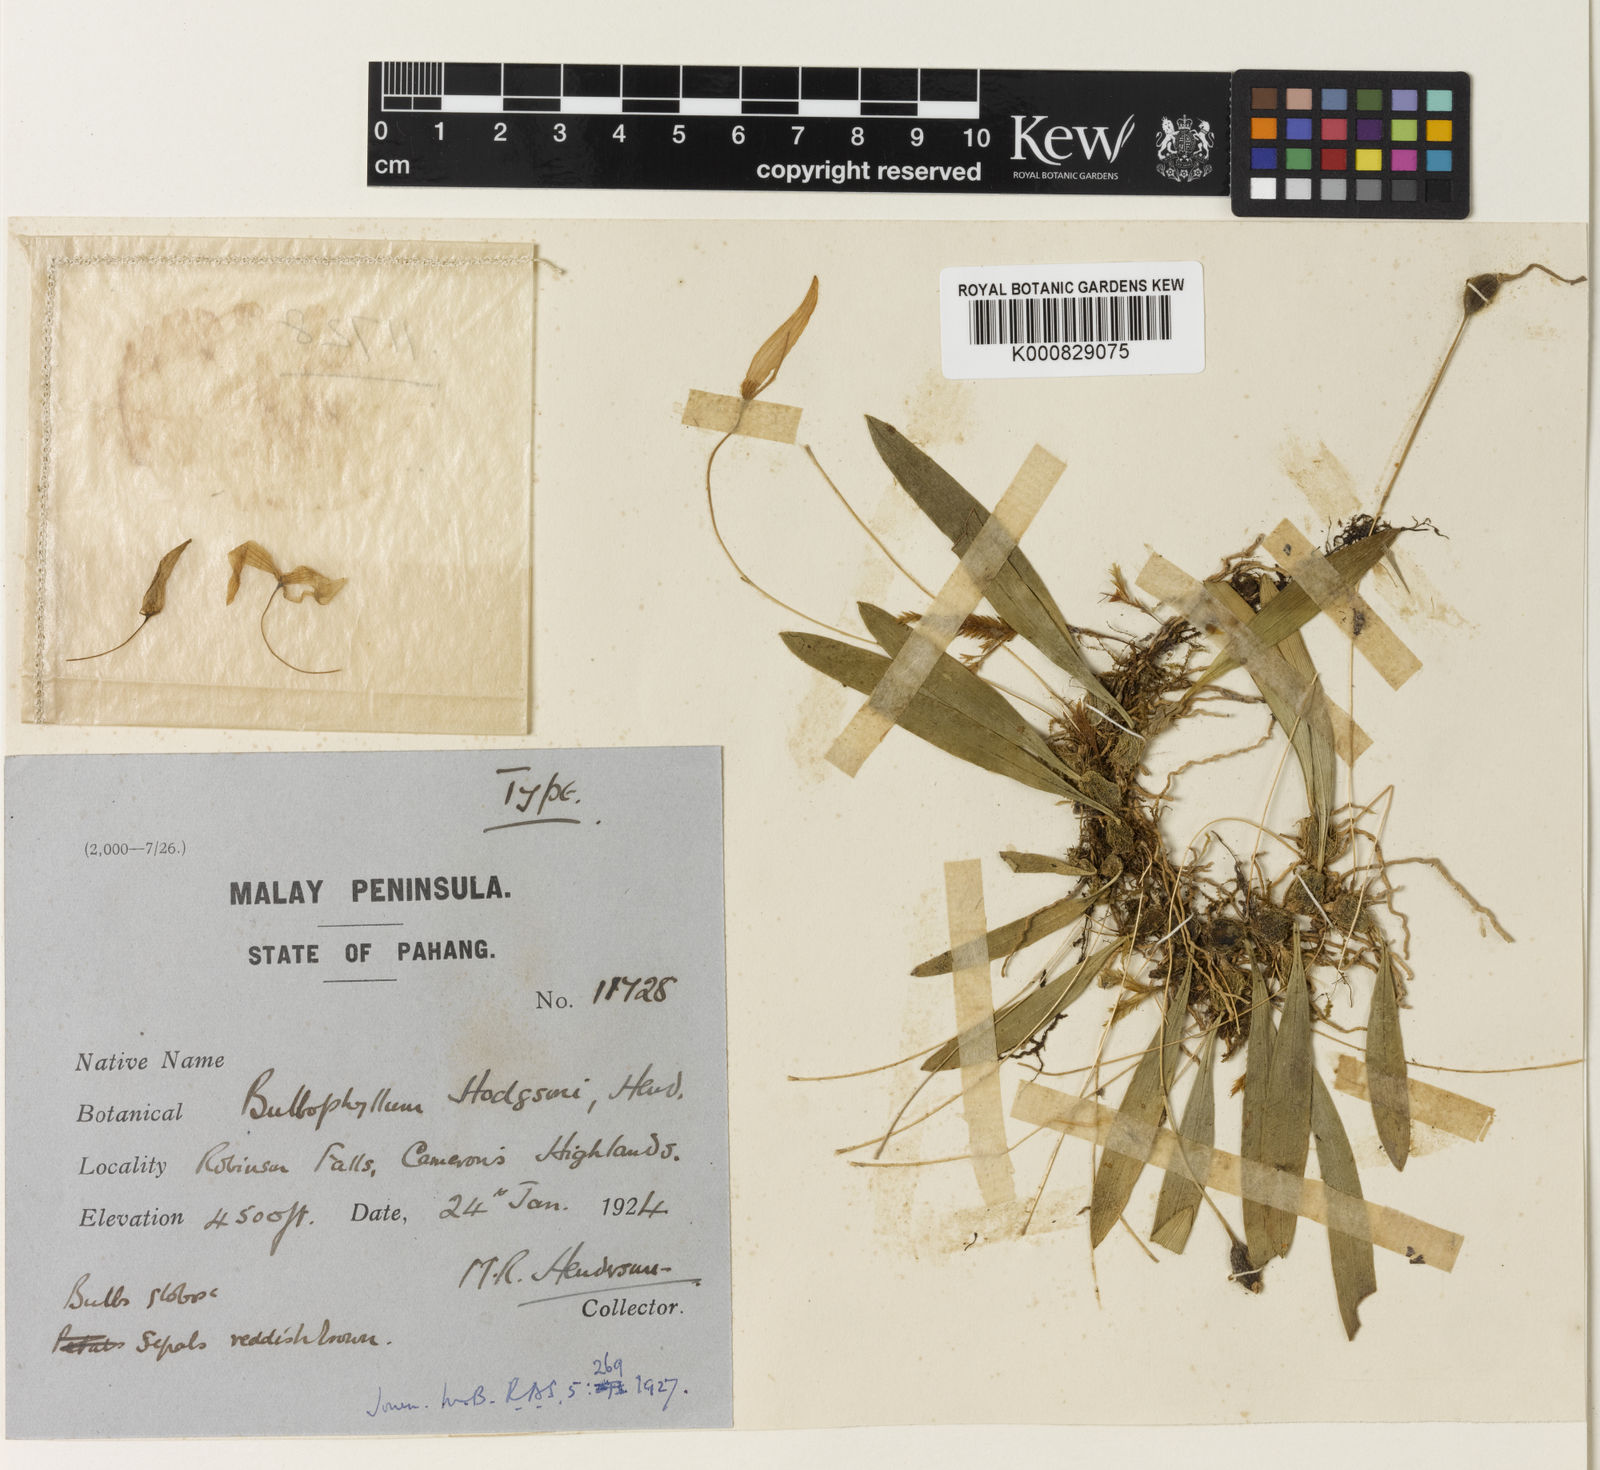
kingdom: Plantae
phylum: Tracheophyta
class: Liliopsida
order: Asparagales
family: Orchidaceae
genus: Bulbophyllum
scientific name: Bulbophyllum hodgsonii
